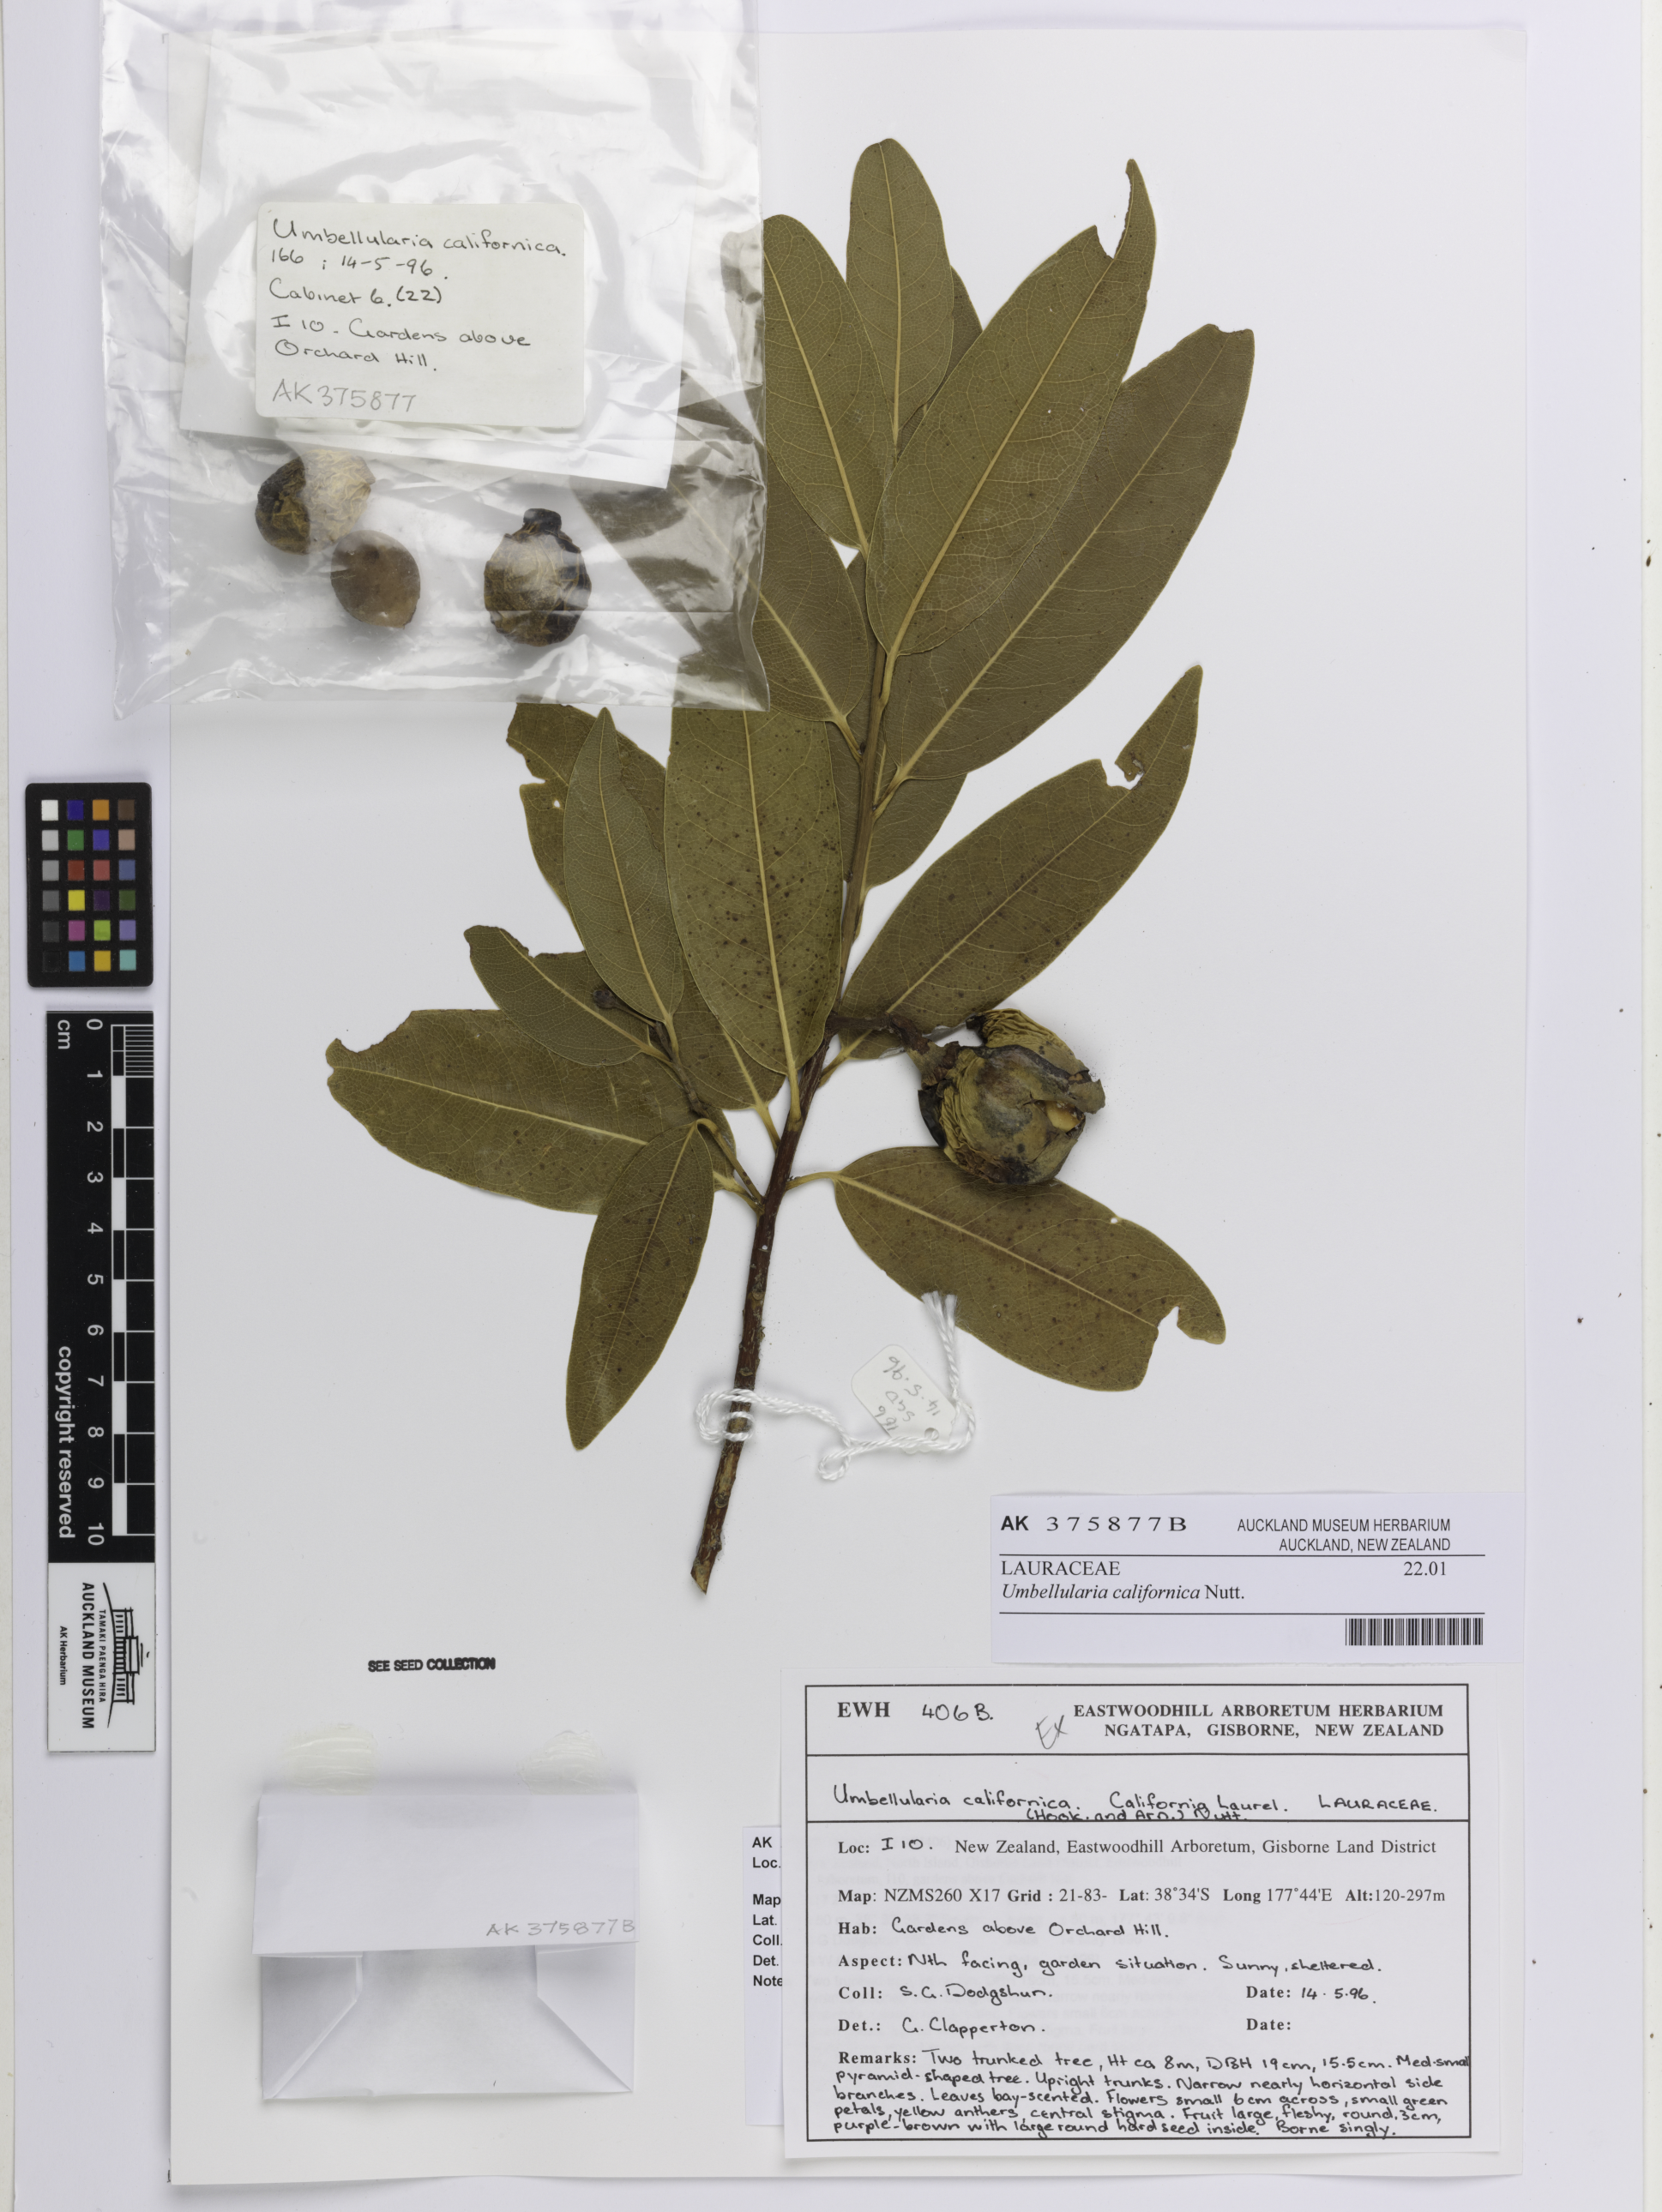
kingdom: Plantae
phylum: Tracheophyta
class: Magnoliopsida
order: Laurales
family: Lauraceae
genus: Umbellularia
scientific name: Umbellularia californica
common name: California bay
